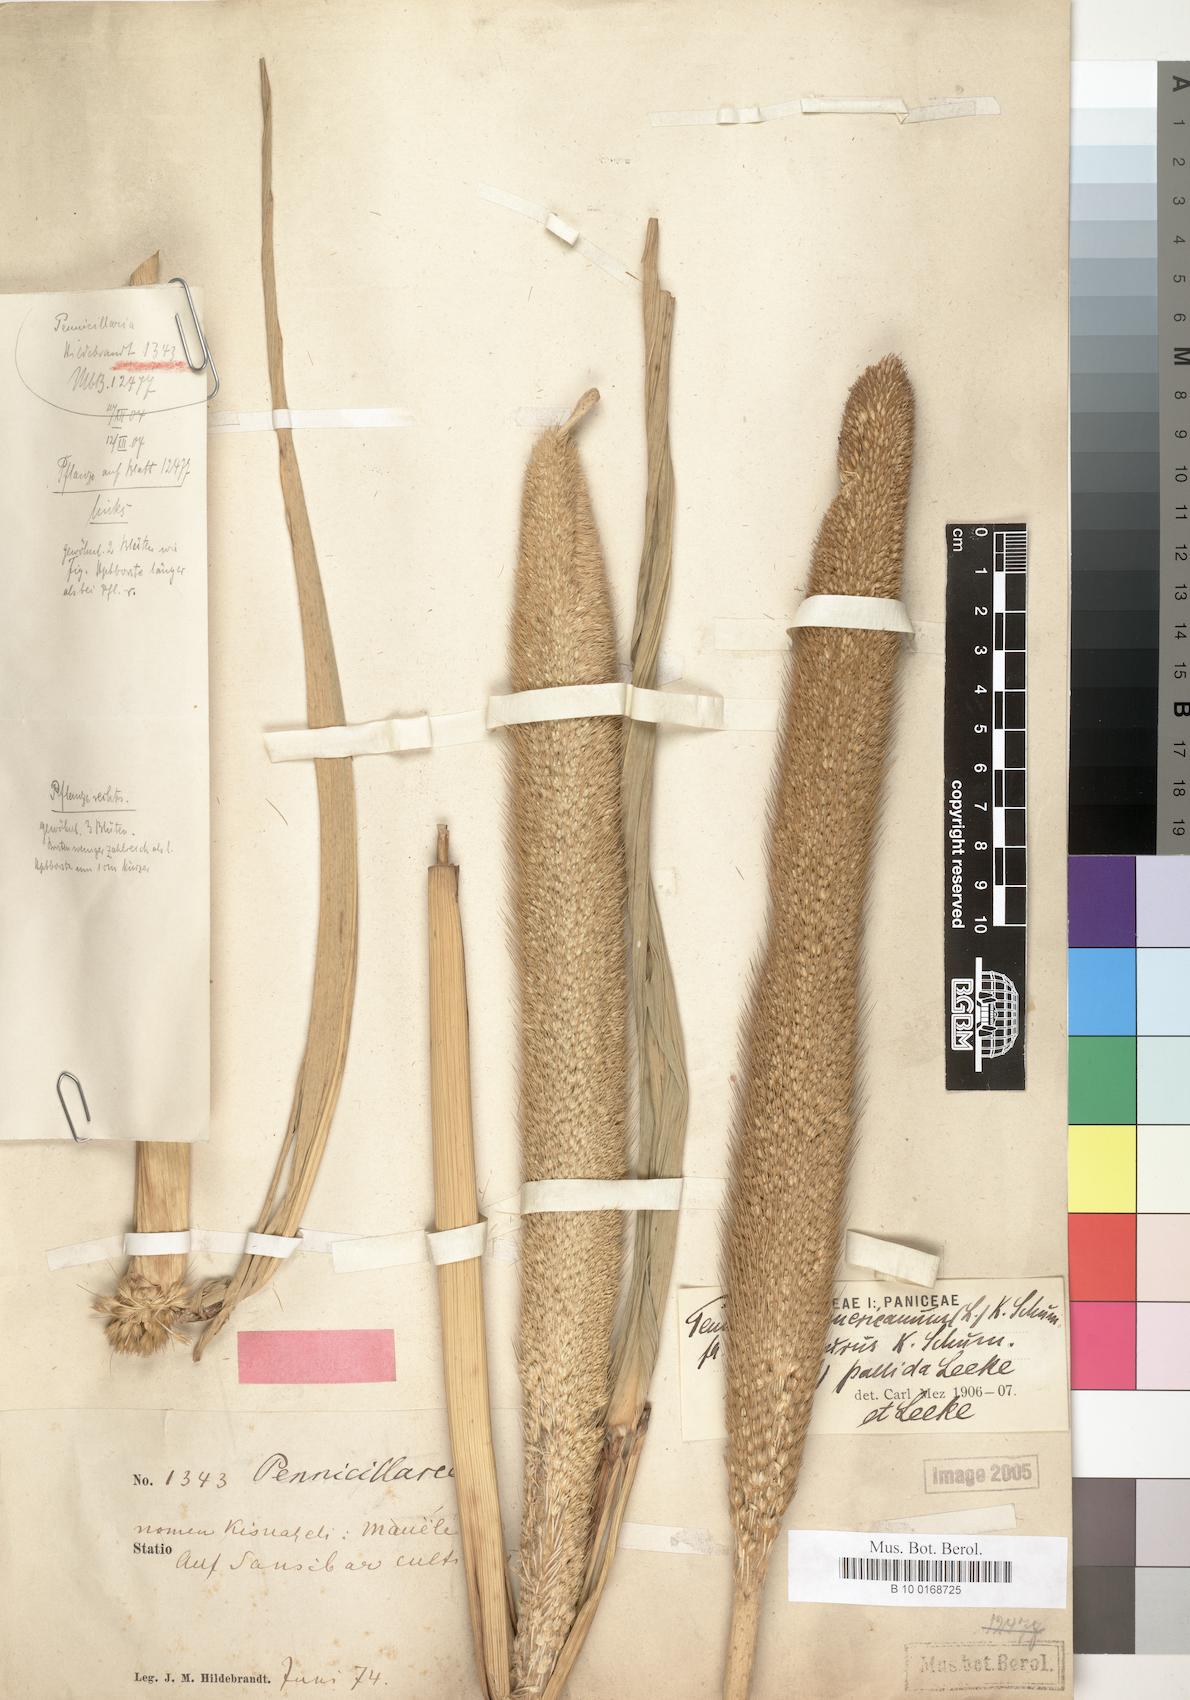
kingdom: Plantae
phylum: Tracheophyta
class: Liliopsida
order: Poales
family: Poaceae
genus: Cenchrus
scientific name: Cenchrus americanus
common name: Pearl millet
